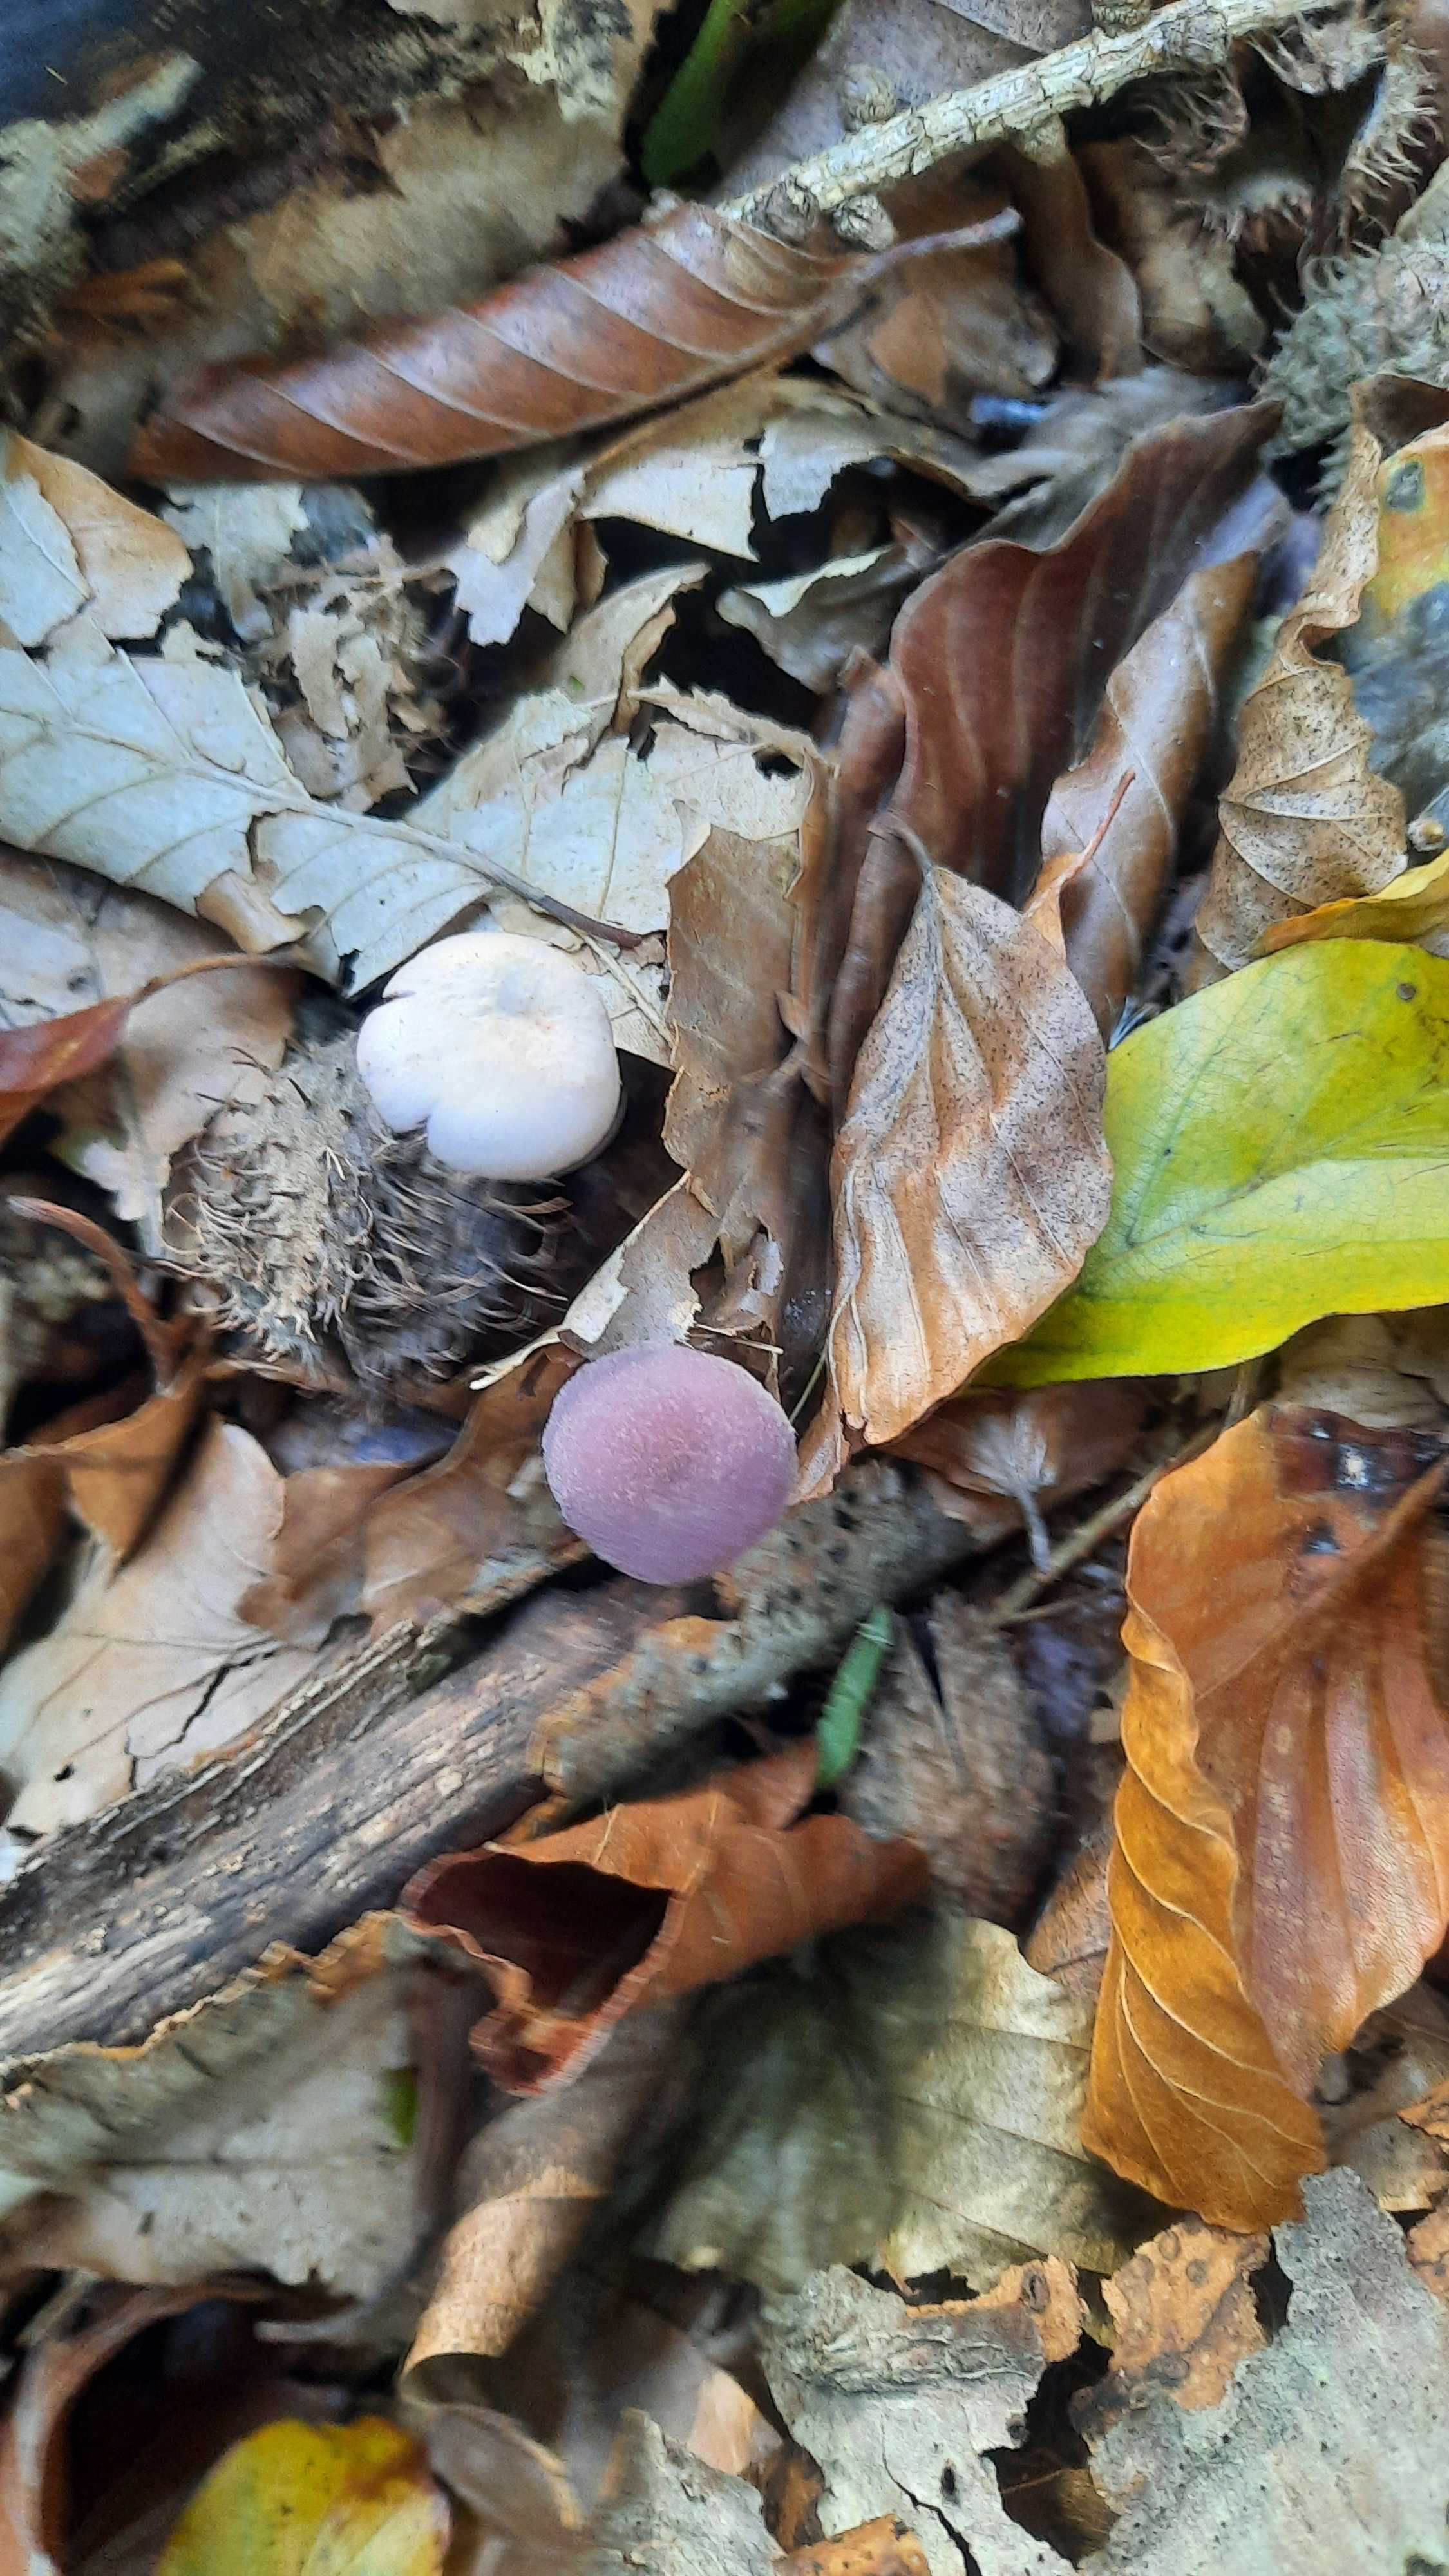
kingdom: Fungi
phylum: Basidiomycota
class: Agaricomycetes
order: Agaricales
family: Hydnangiaceae
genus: Laccaria
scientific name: Laccaria amethystina
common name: violet ametysthat
